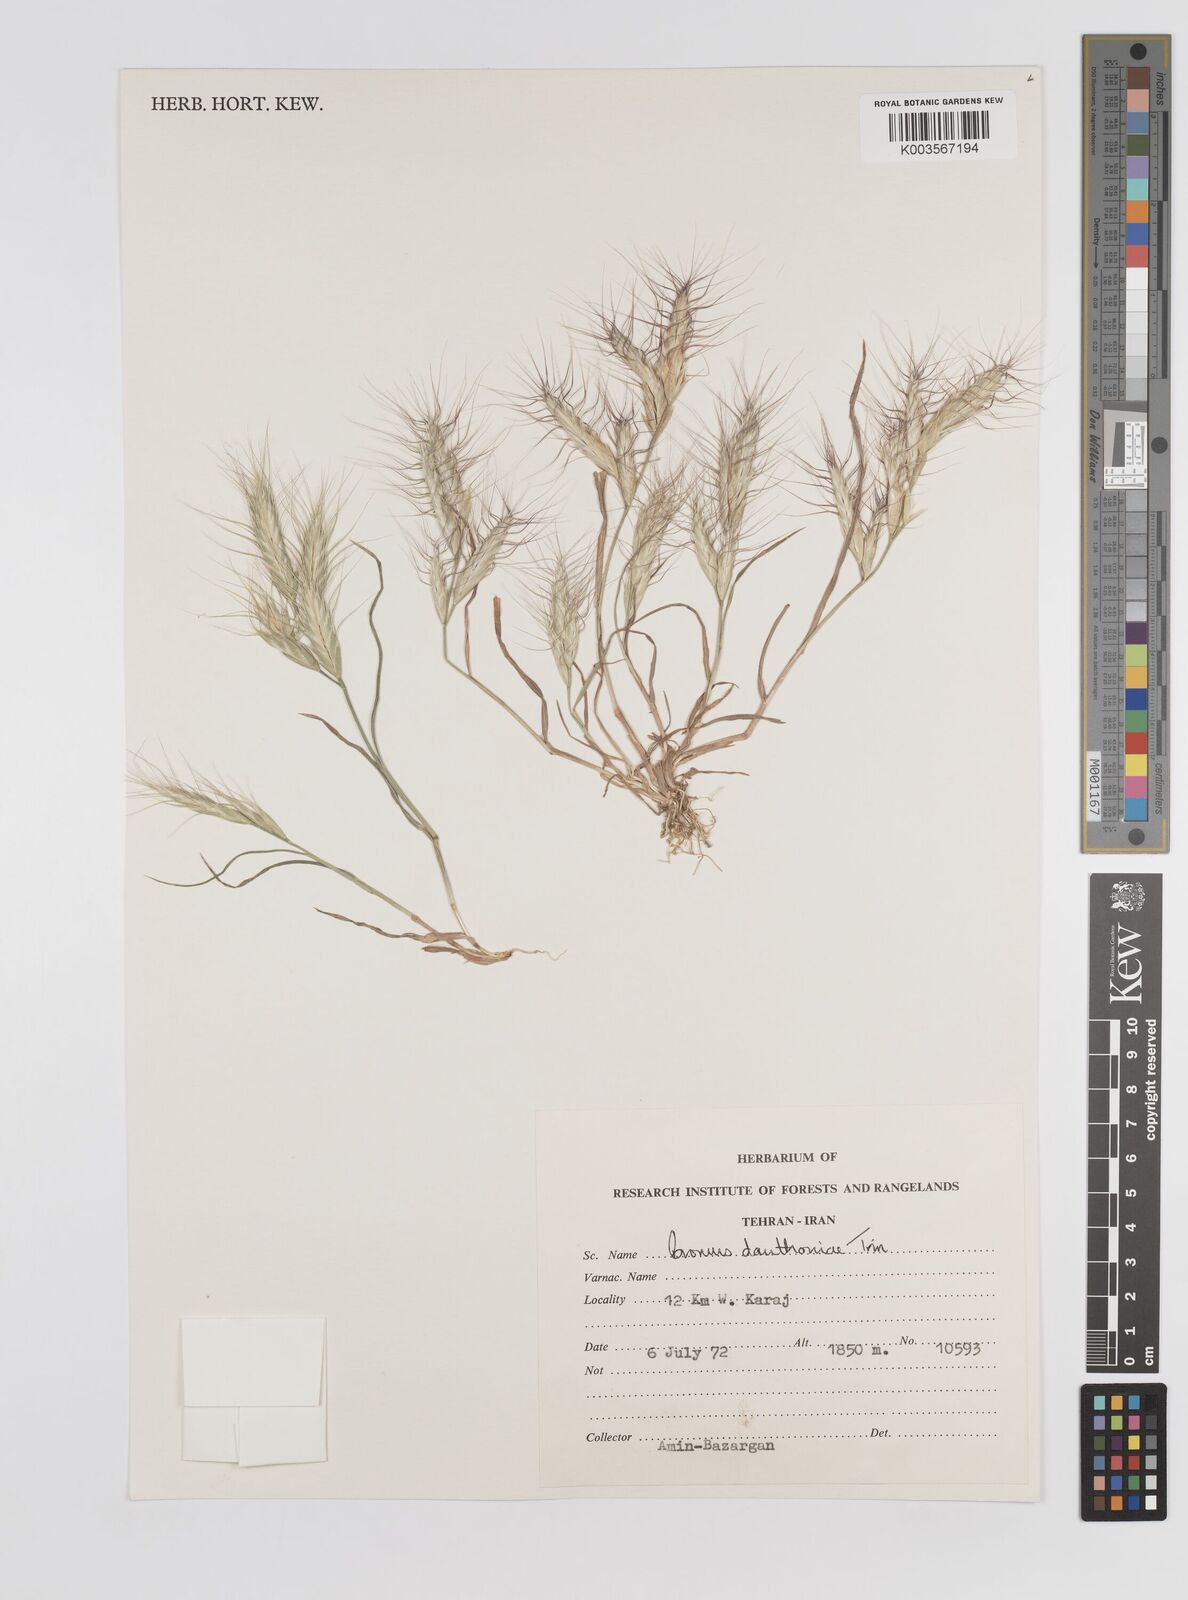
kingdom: Plantae
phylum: Tracheophyta
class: Liliopsida
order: Poales
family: Poaceae
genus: Bromus
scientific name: Bromus danthoniae
